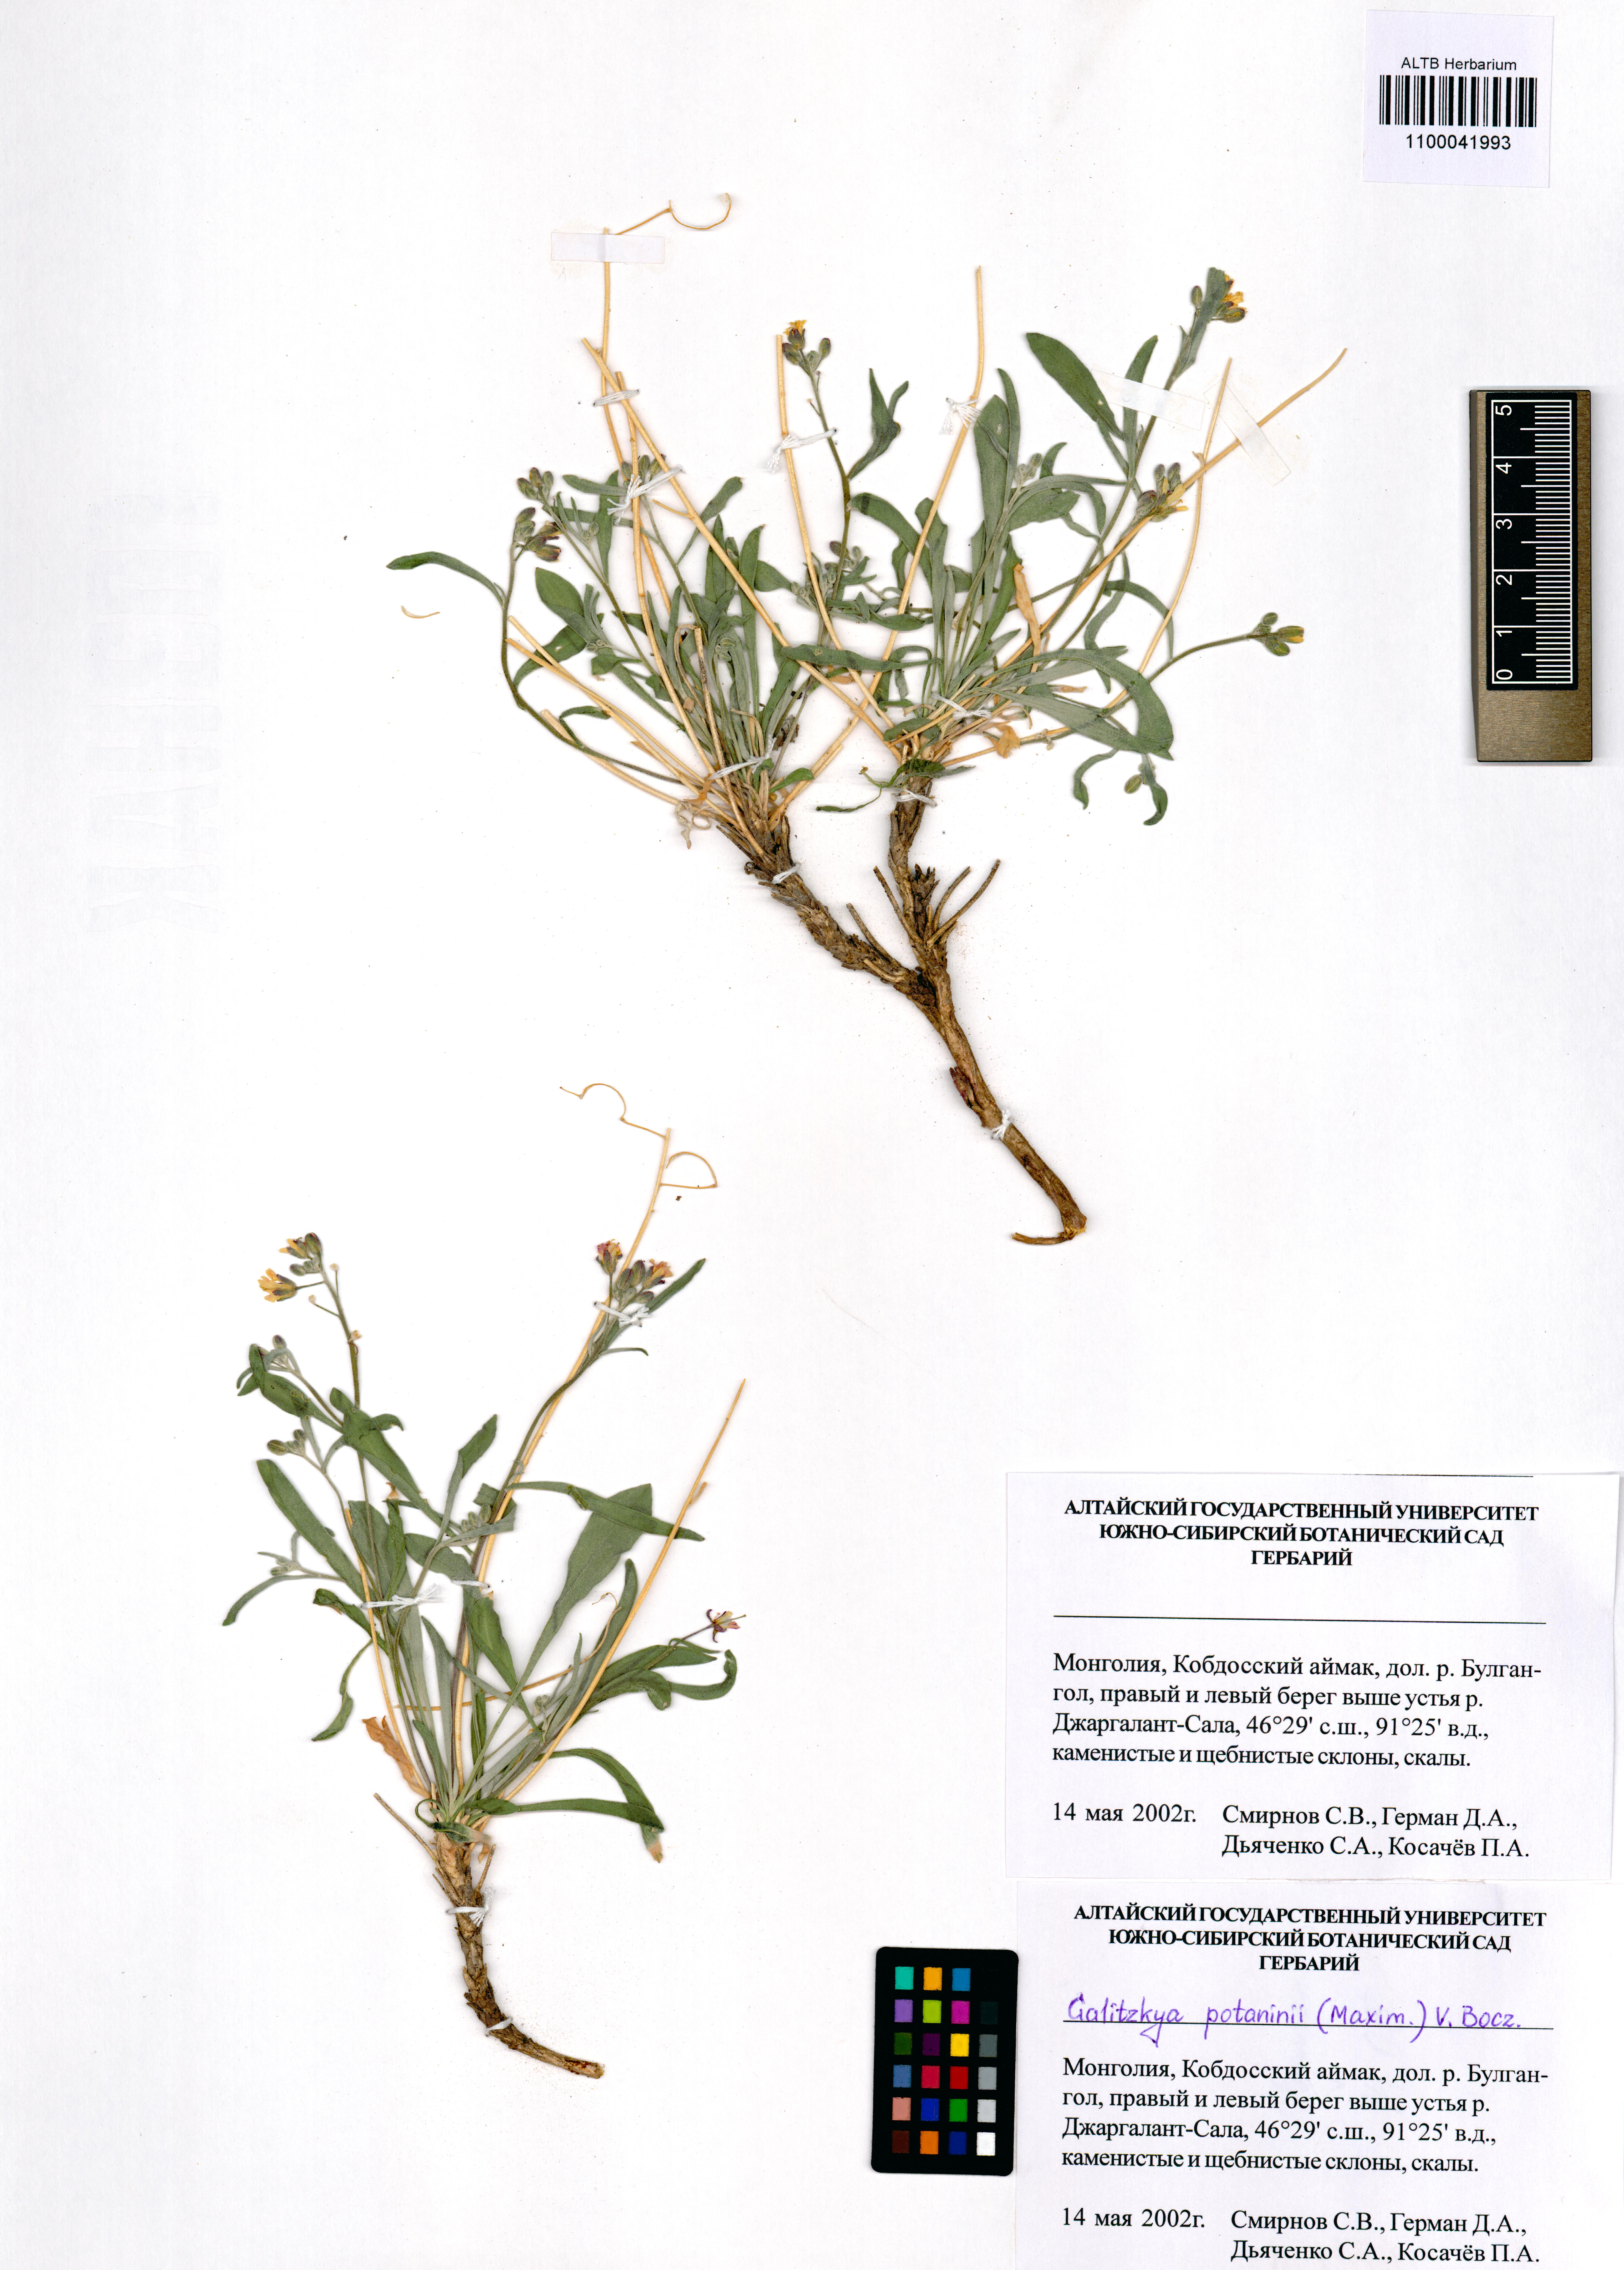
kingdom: Plantae
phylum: Tracheophyta
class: Magnoliopsida
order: Brassicales
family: Brassicaceae
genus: Galitzkya
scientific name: Galitzkya potaninii
